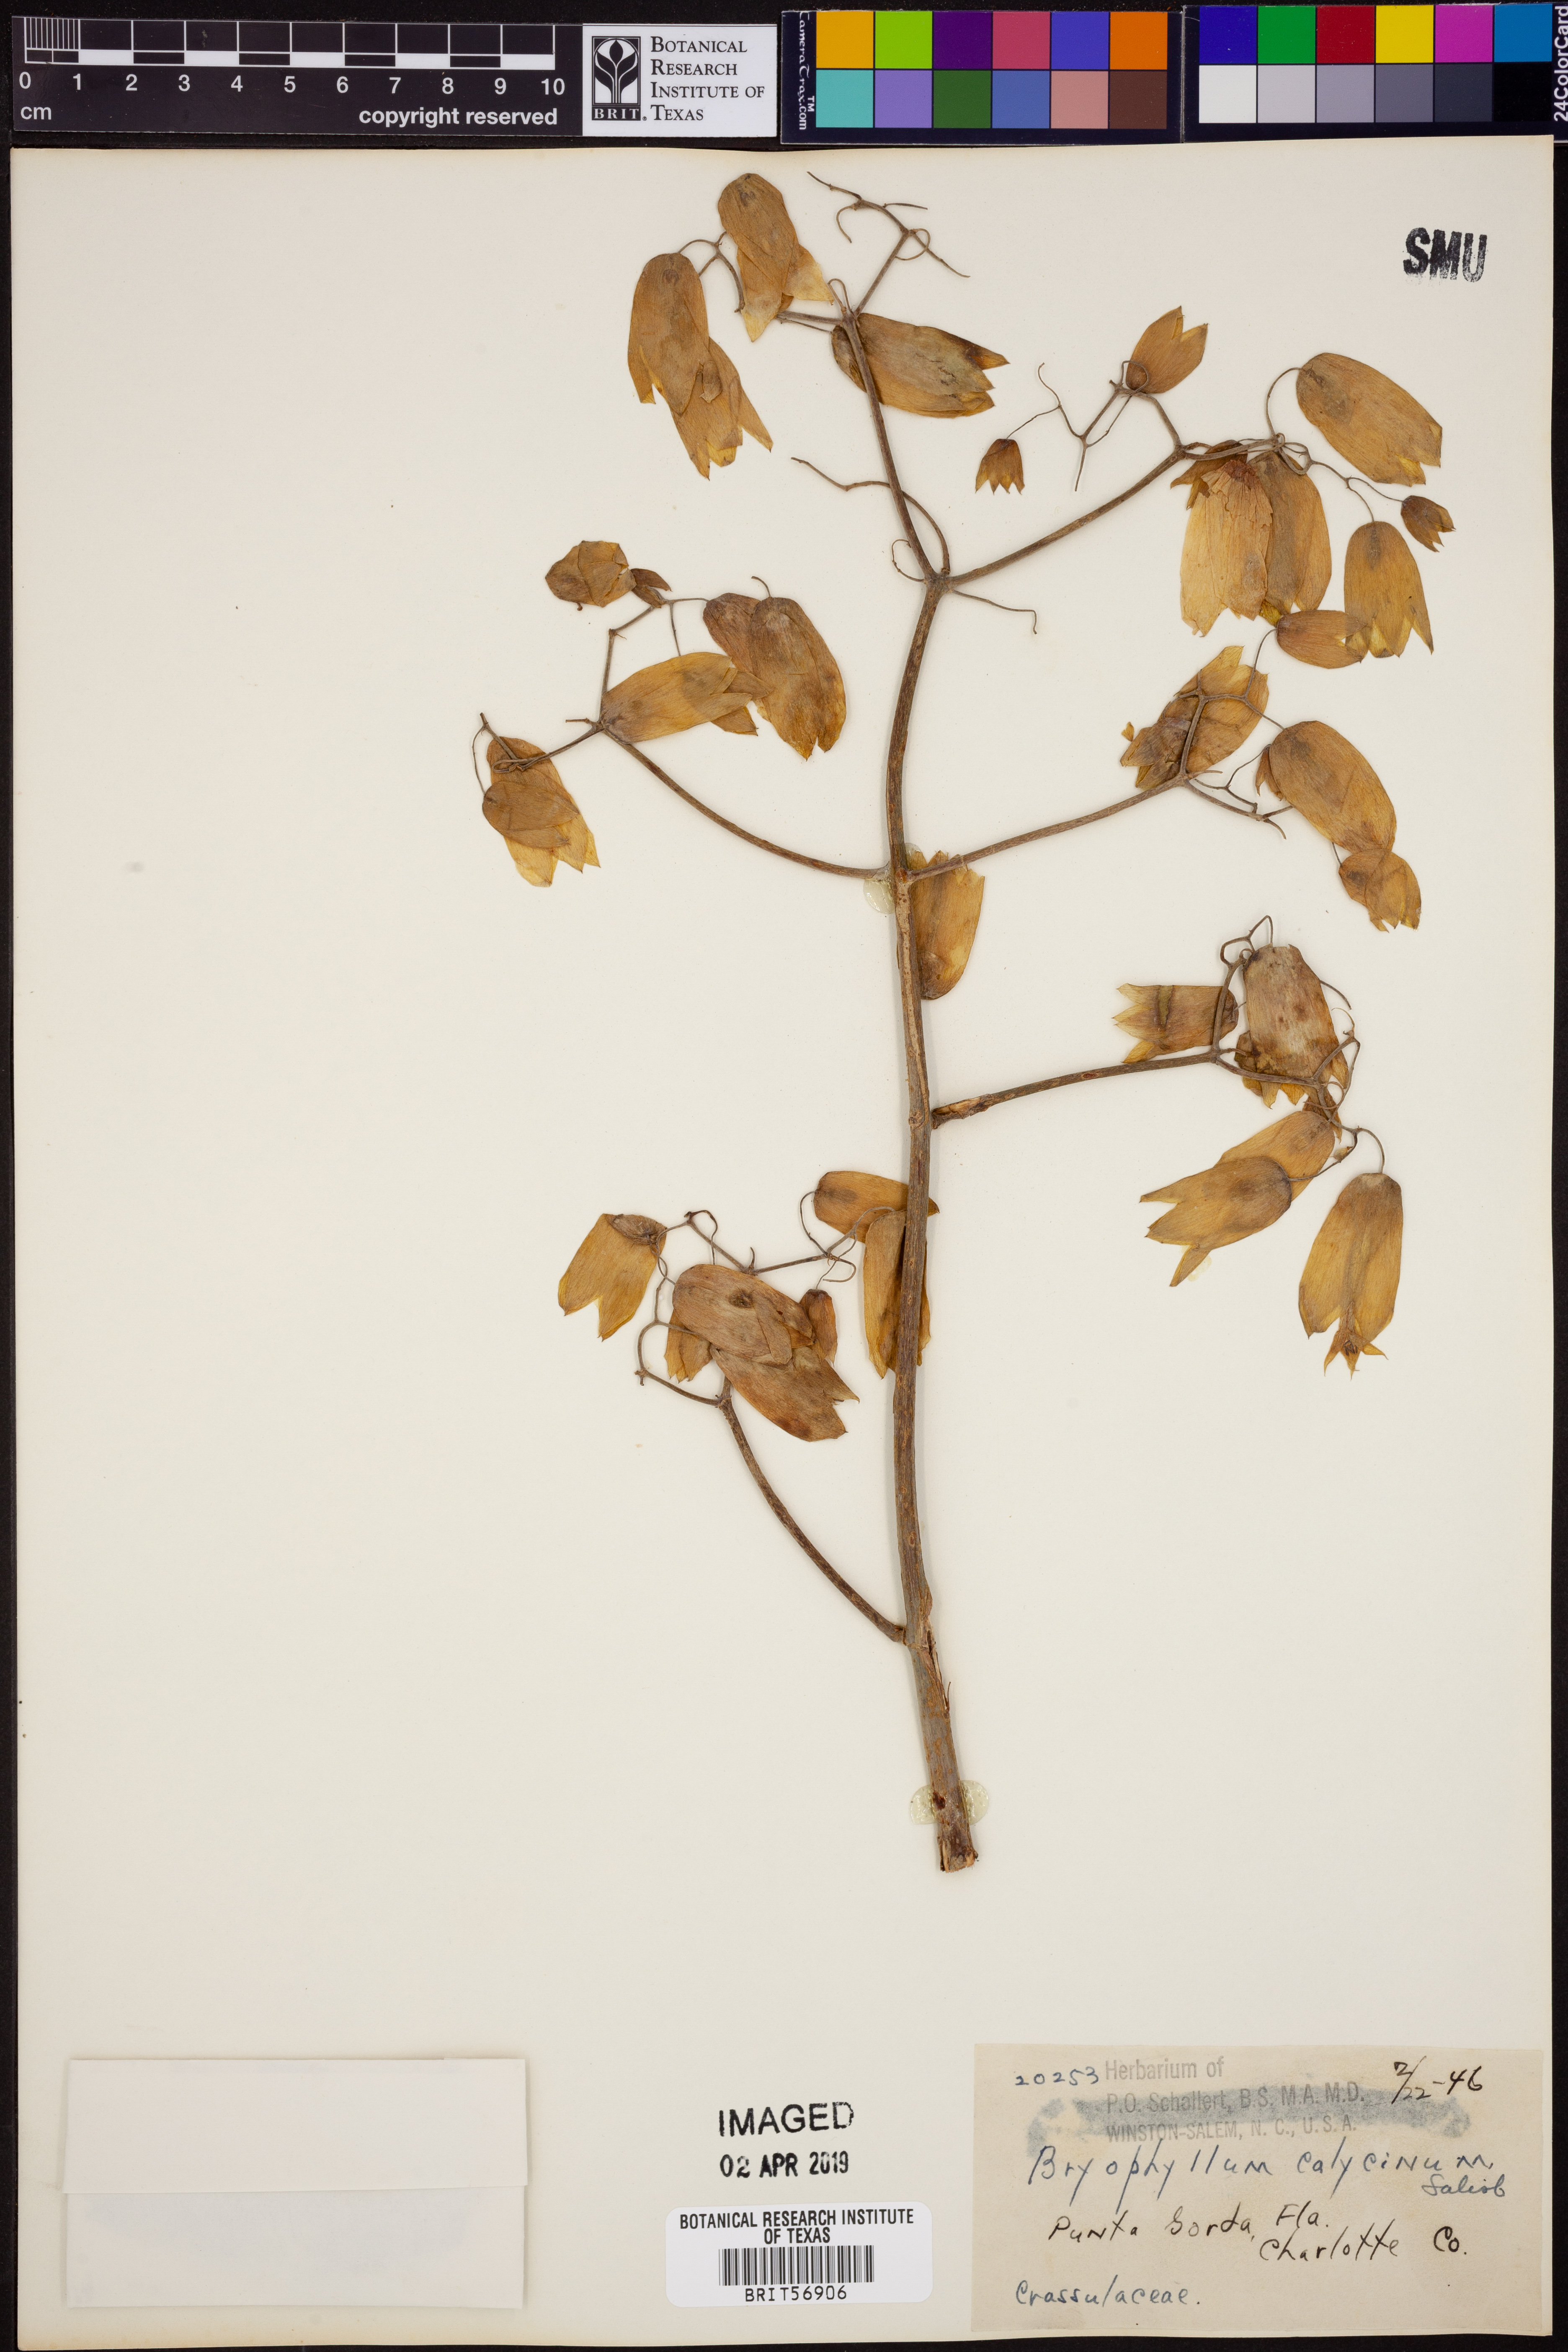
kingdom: Plantae
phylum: Tracheophyta
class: Magnoliopsida
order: Saxifragales
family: Crassulaceae
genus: Kalanchoe
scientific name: Kalanchoe pinnata
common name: Cathedral bells
